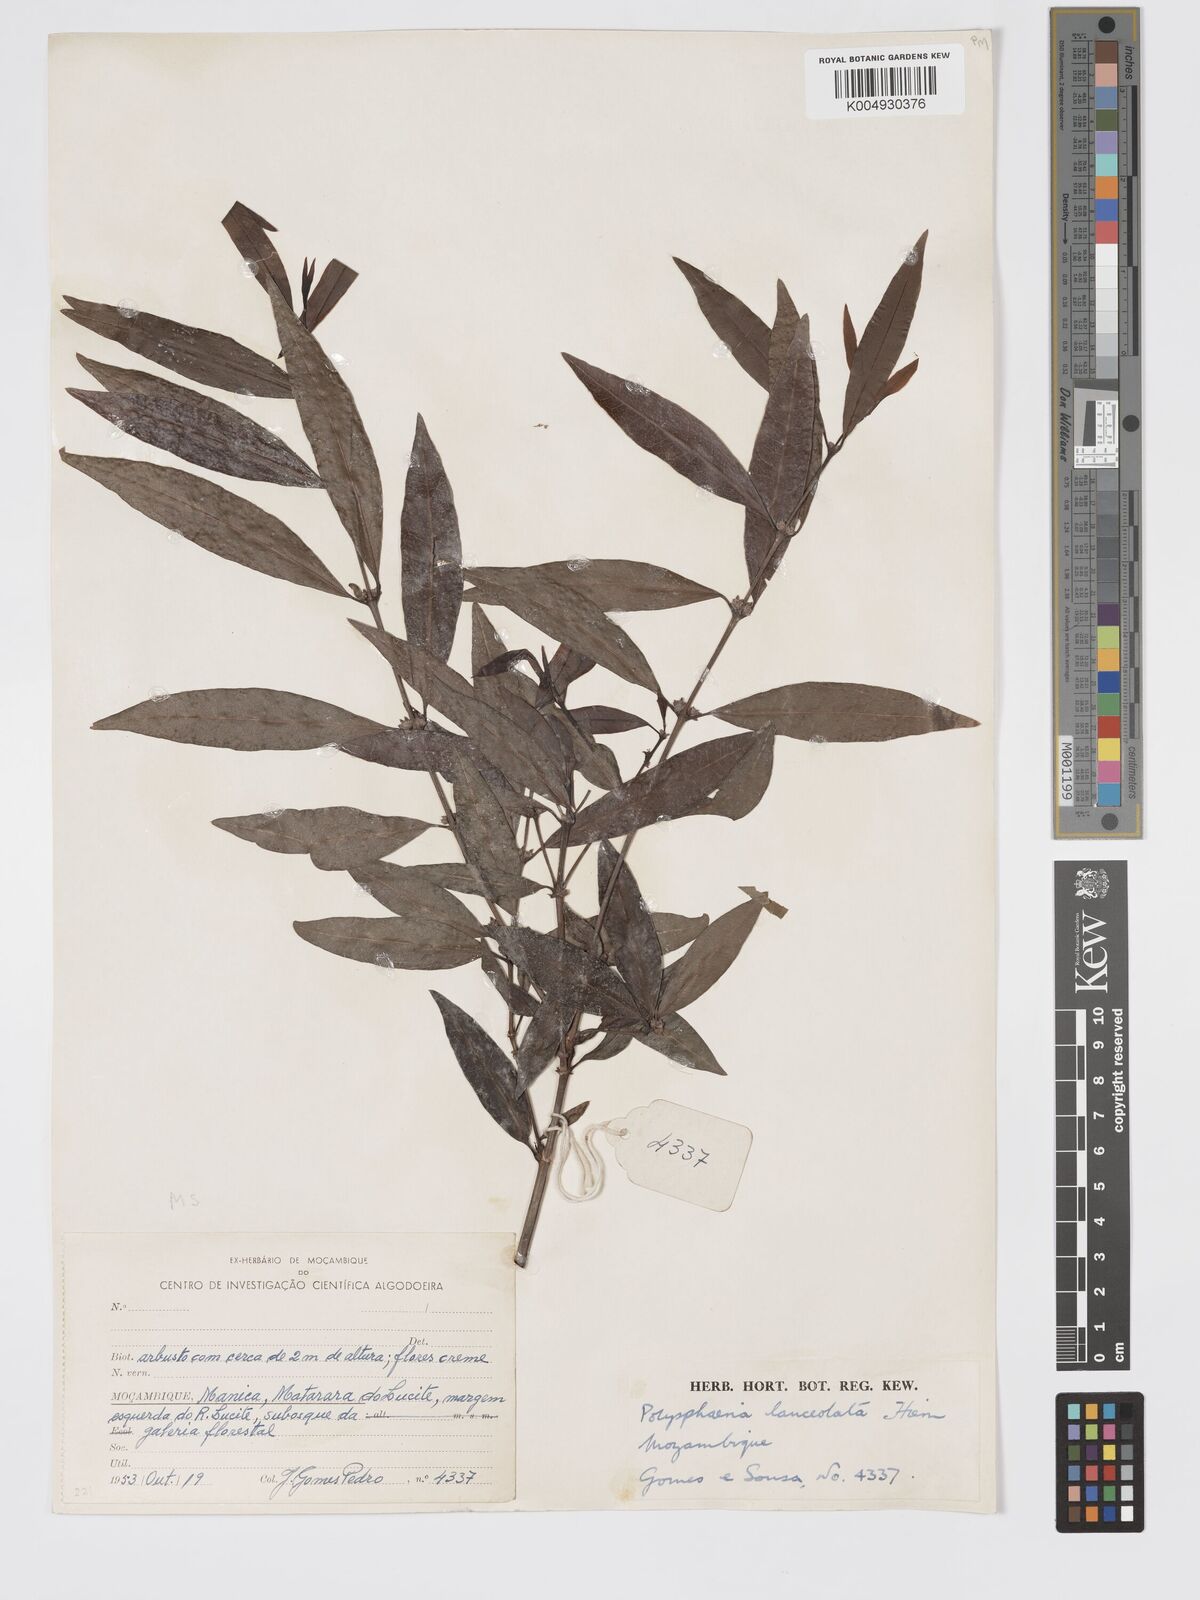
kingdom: Plantae
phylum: Tracheophyta
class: Magnoliopsida
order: Gentianales
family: Rubiaceae
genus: Polysphaeria
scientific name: Polysphaeria lanceolata
